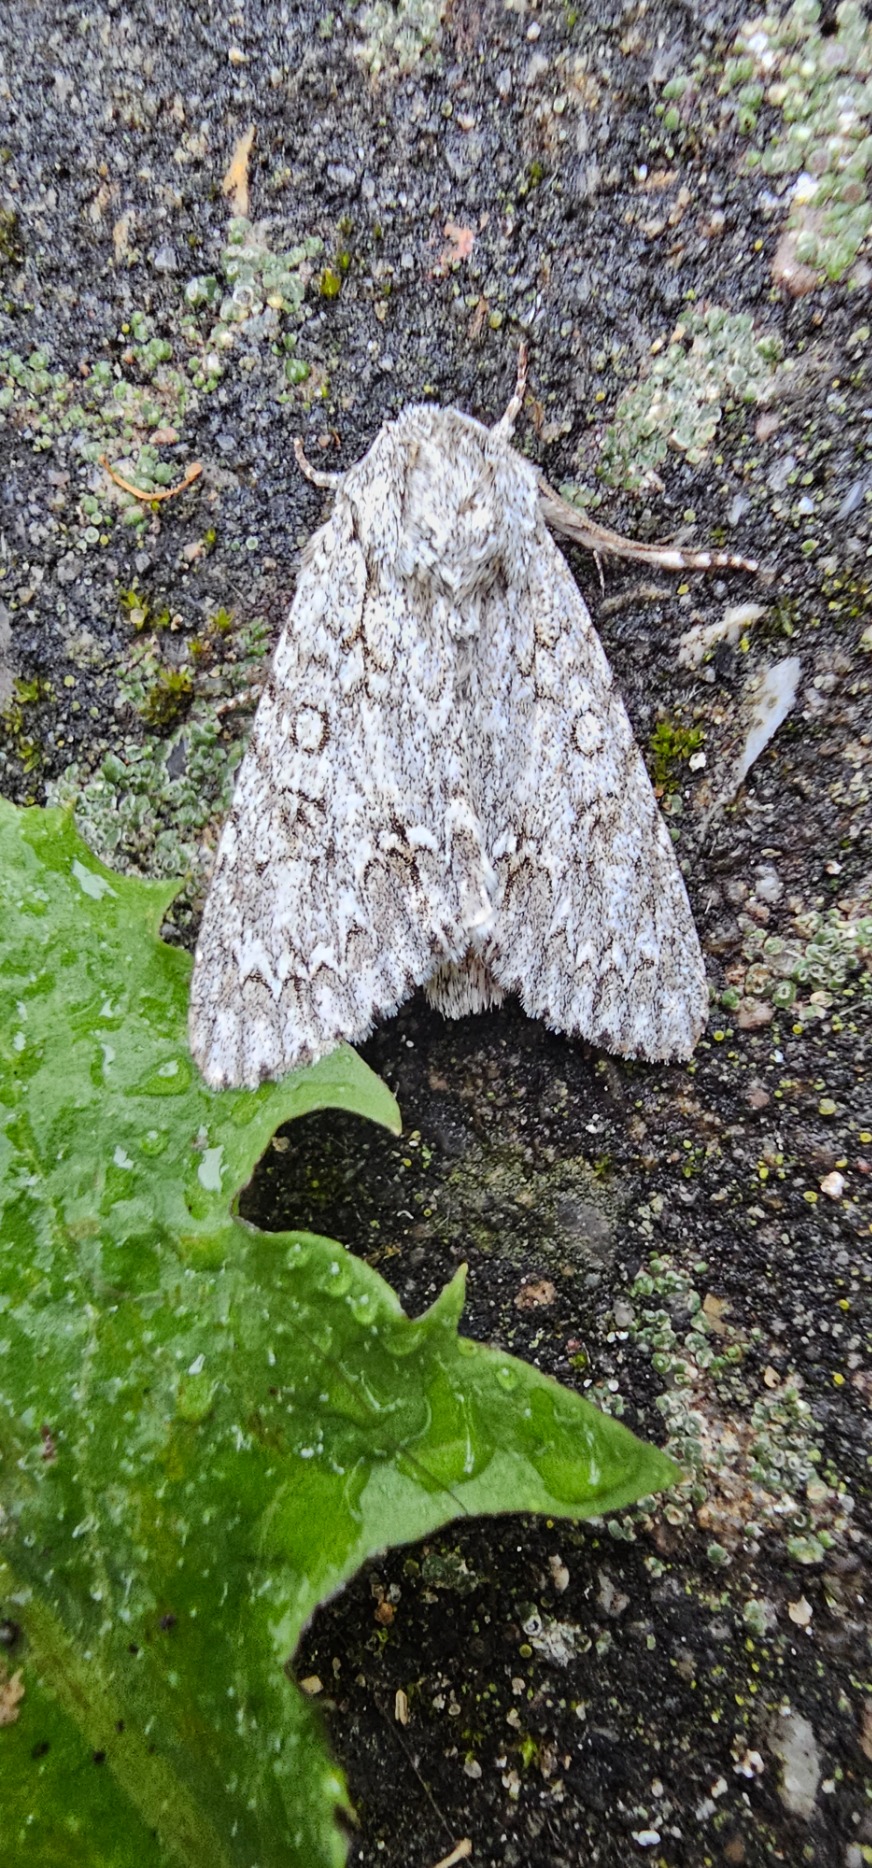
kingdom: Animalia
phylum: Arthropoda
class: Insecta
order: Lepidoptera
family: Noctuidae
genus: Acronicta
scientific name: Acronicta aceris
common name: Ahornugle
